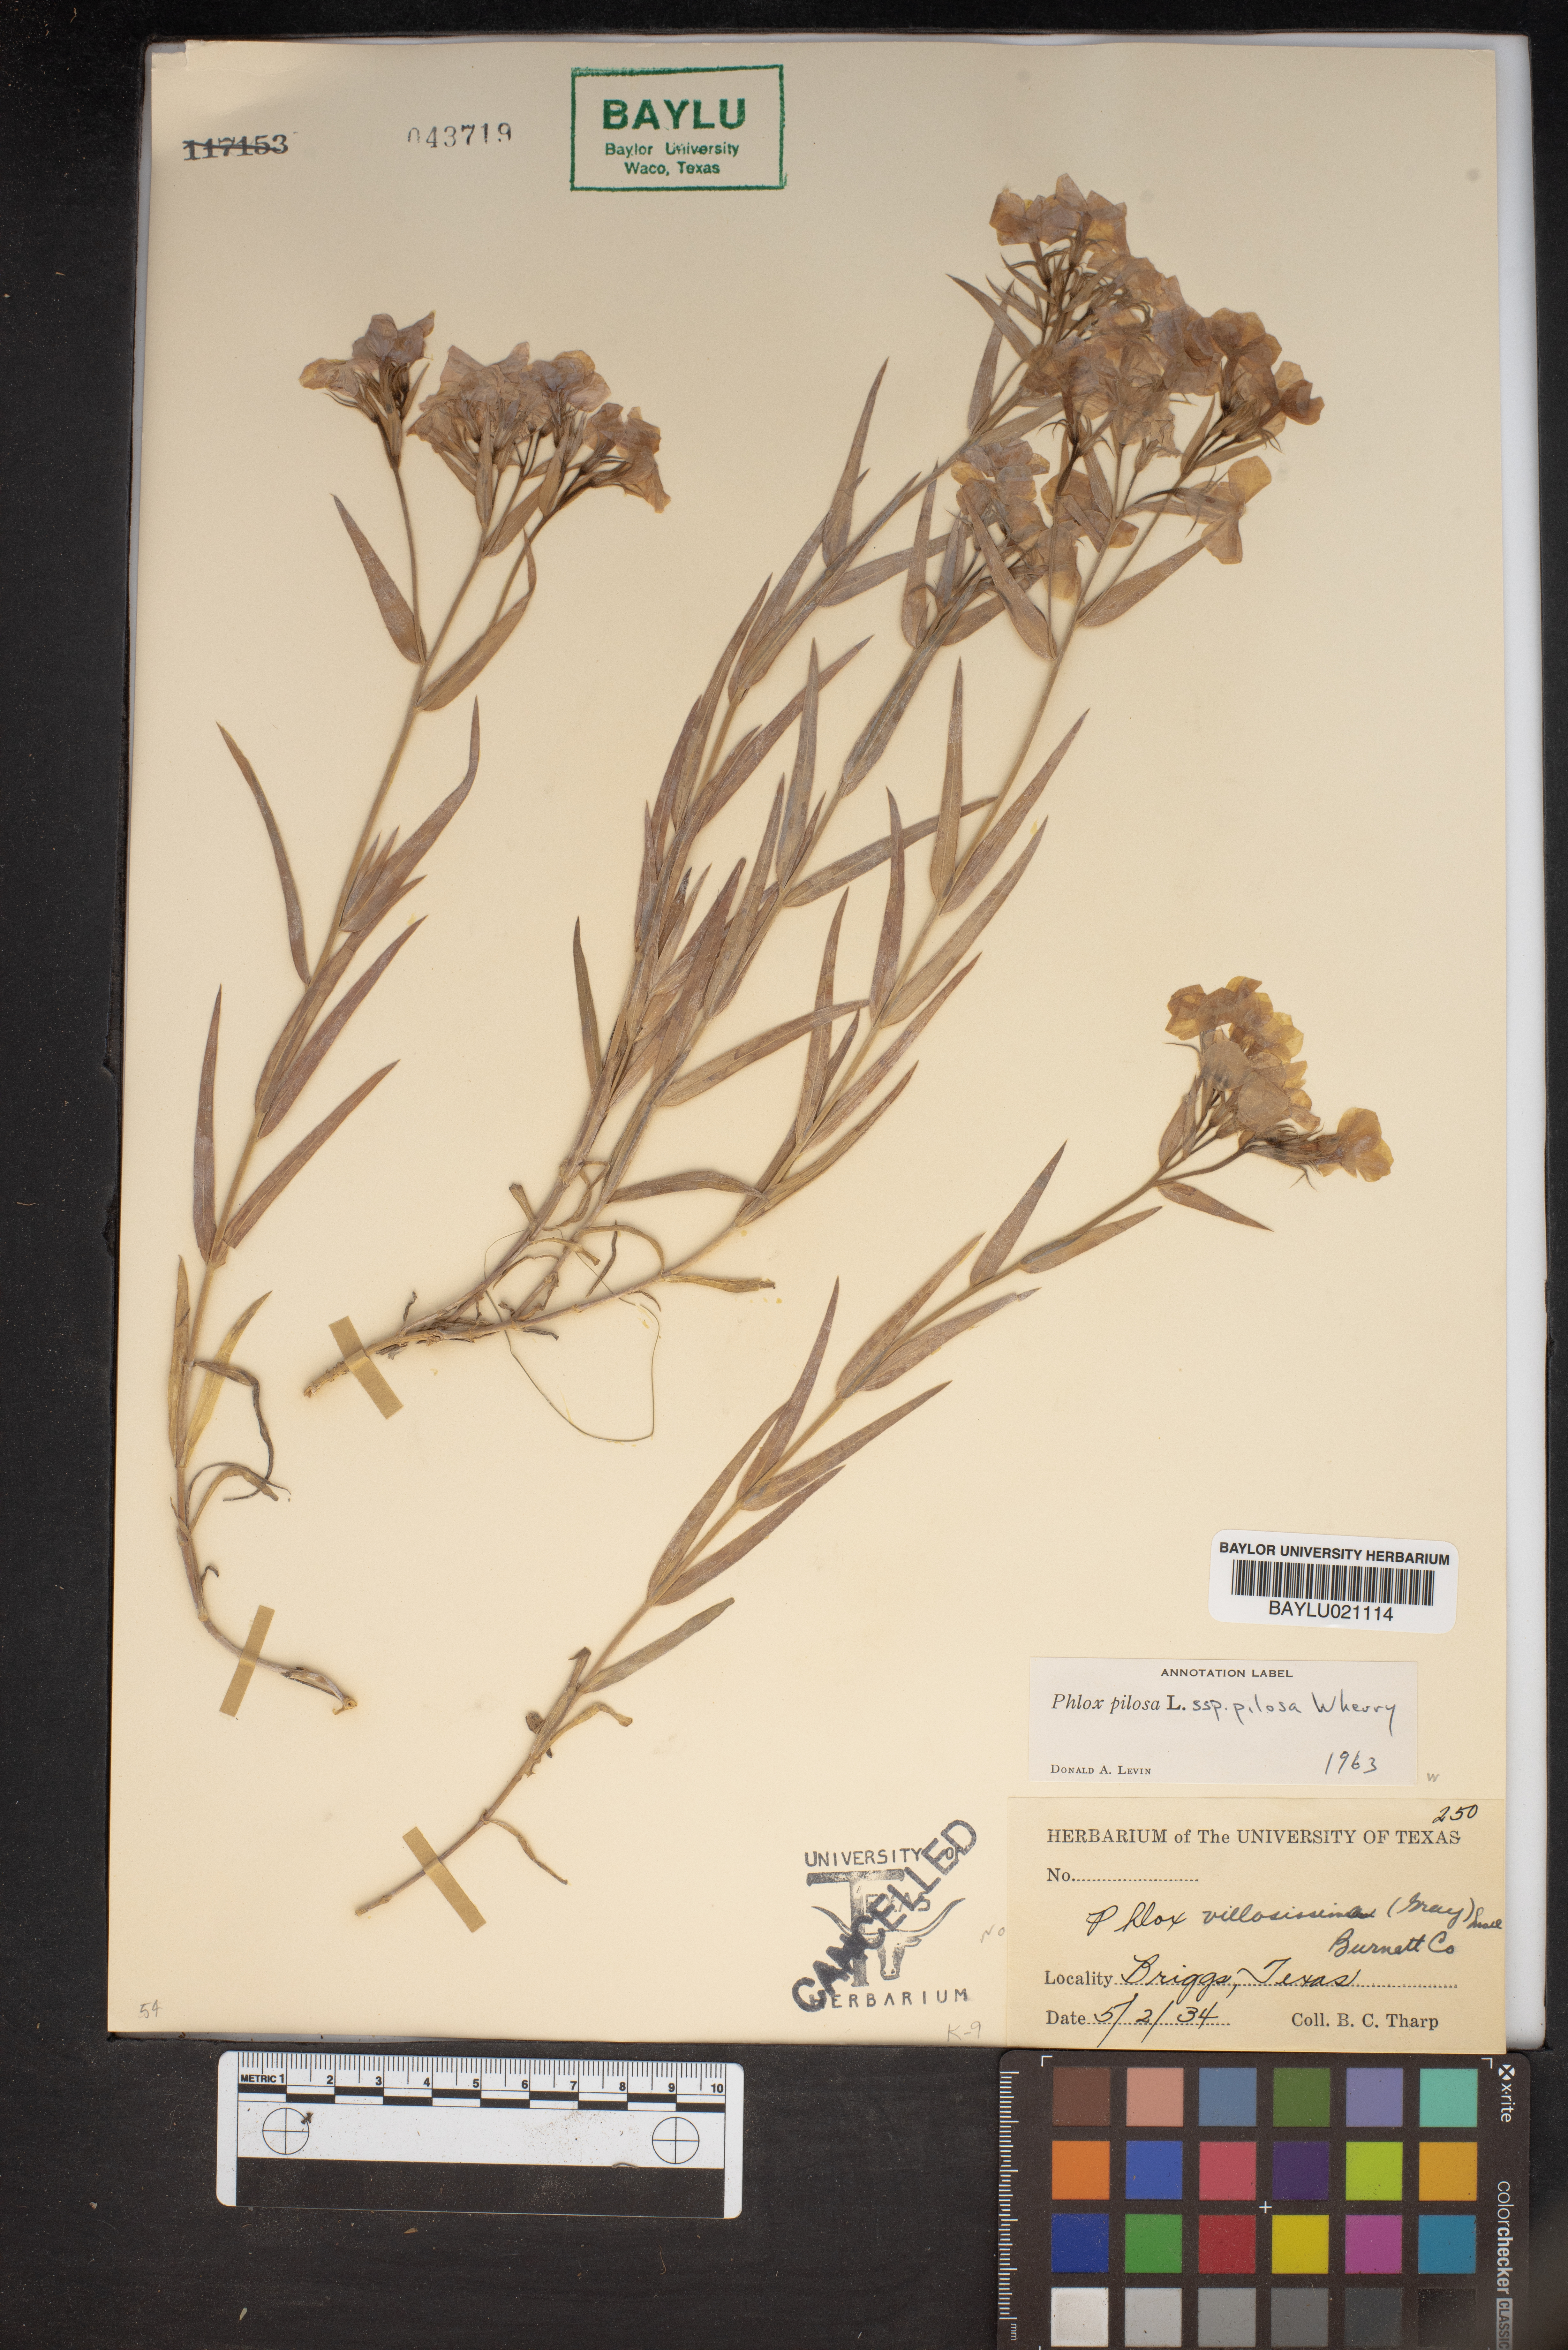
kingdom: Plantae
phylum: Tracheophyta
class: Magnoliopsida
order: Ericales
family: Polemoniaceae
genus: Phlox
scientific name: Phlox pilosa
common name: Prairie phlox
